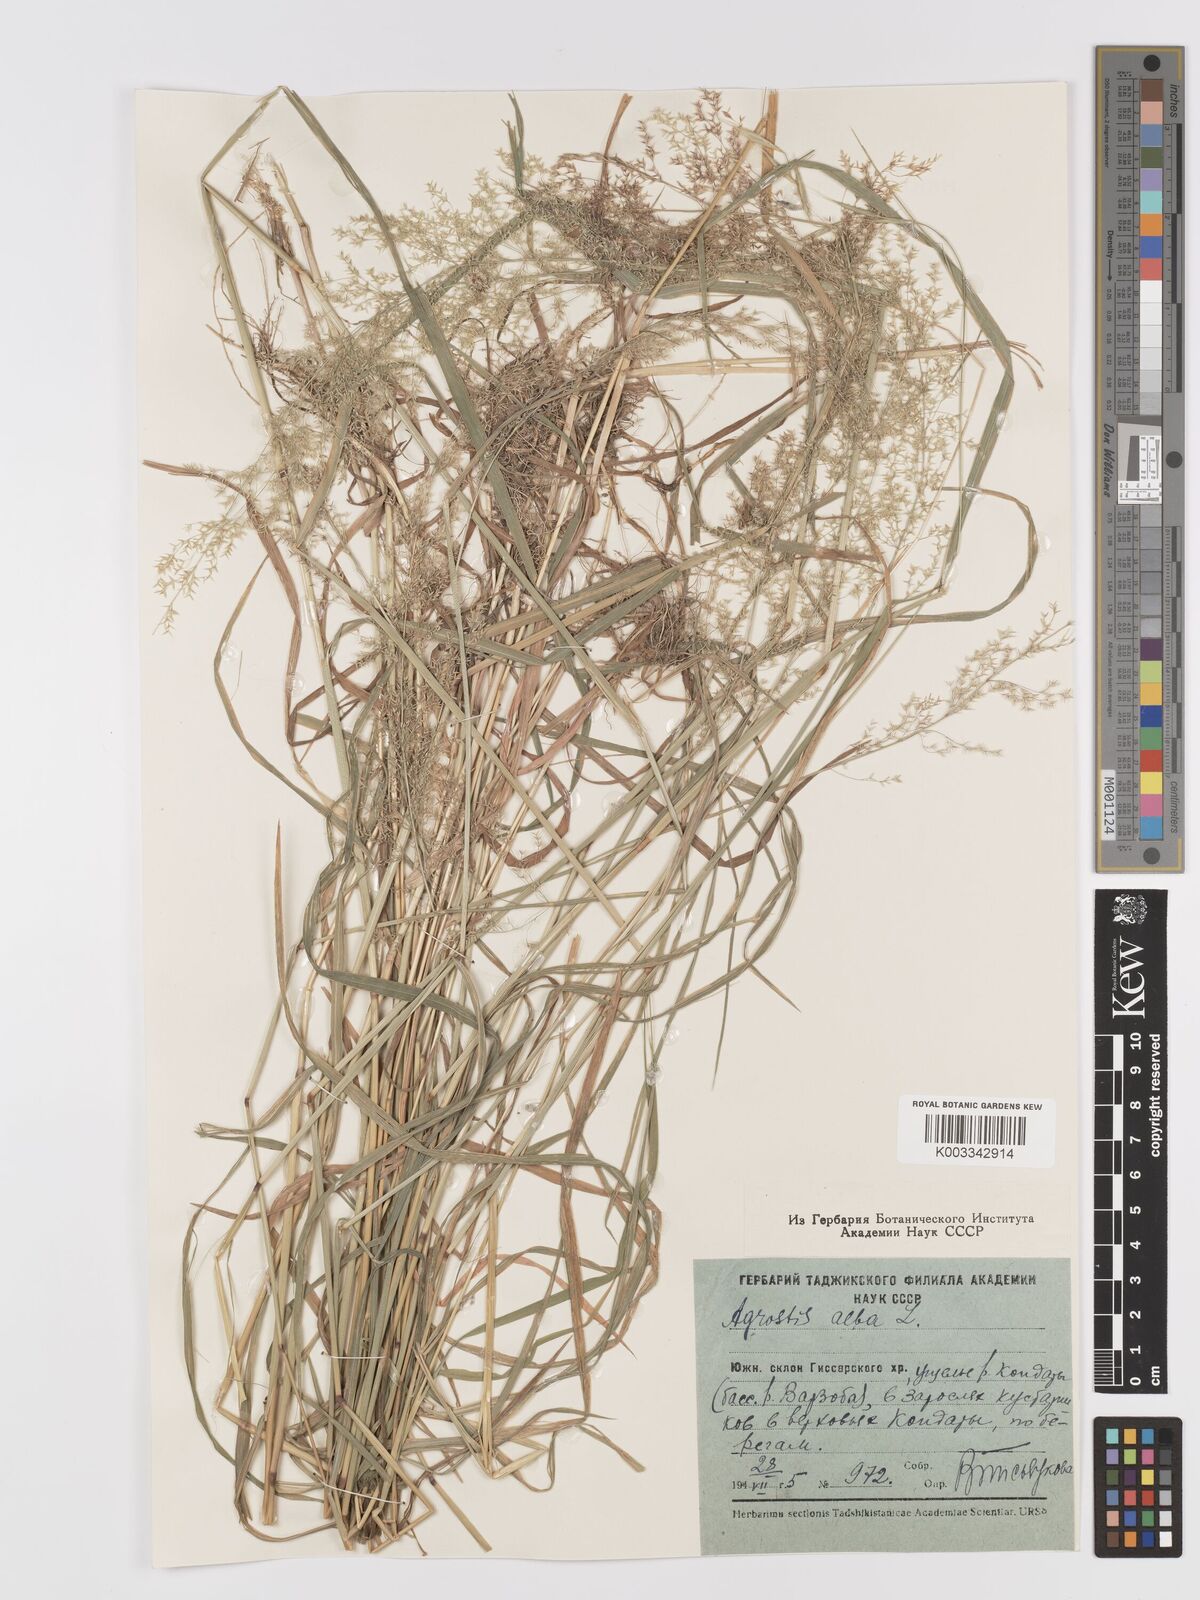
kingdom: Plantae
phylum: Tracheophyta
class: Liliopsida
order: Poales
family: Poaceae
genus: Agrostis
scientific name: Agrostis gigantea
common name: Black bent
